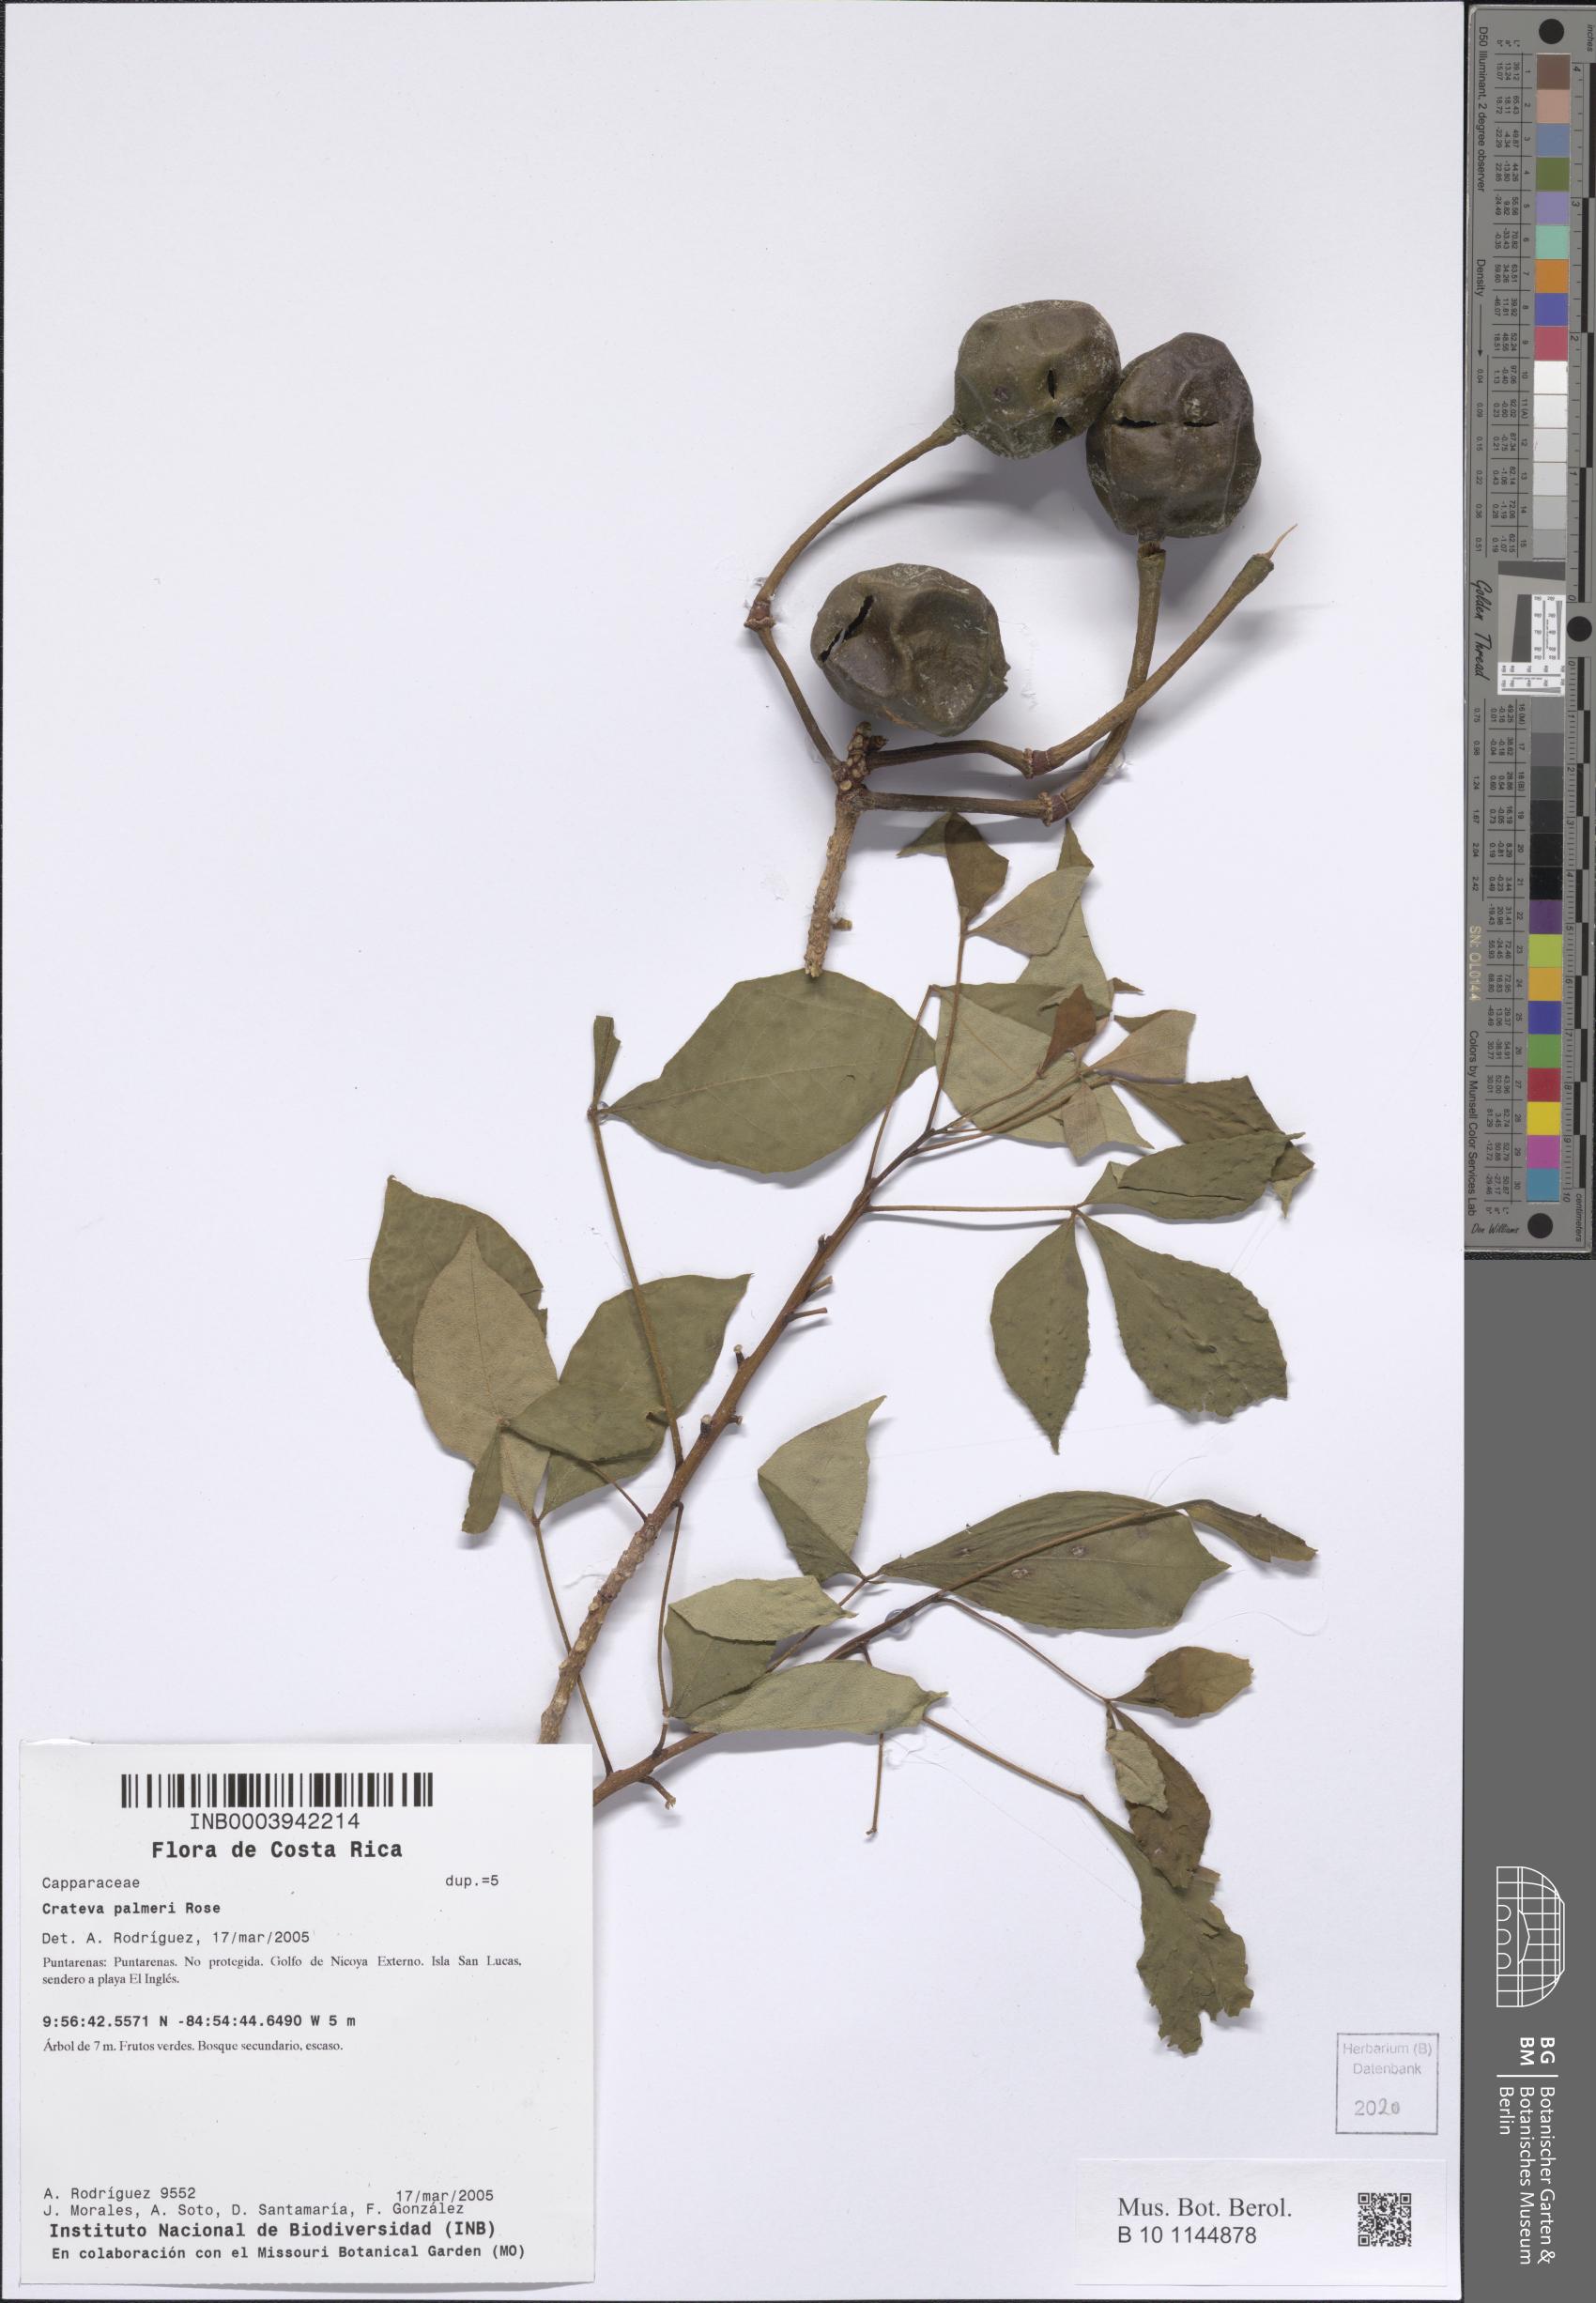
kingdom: Plantae
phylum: Tracheophyta
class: Magnoliopsida
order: Brassicales
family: Capparaceae
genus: Crateva
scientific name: Crateva palmeri
